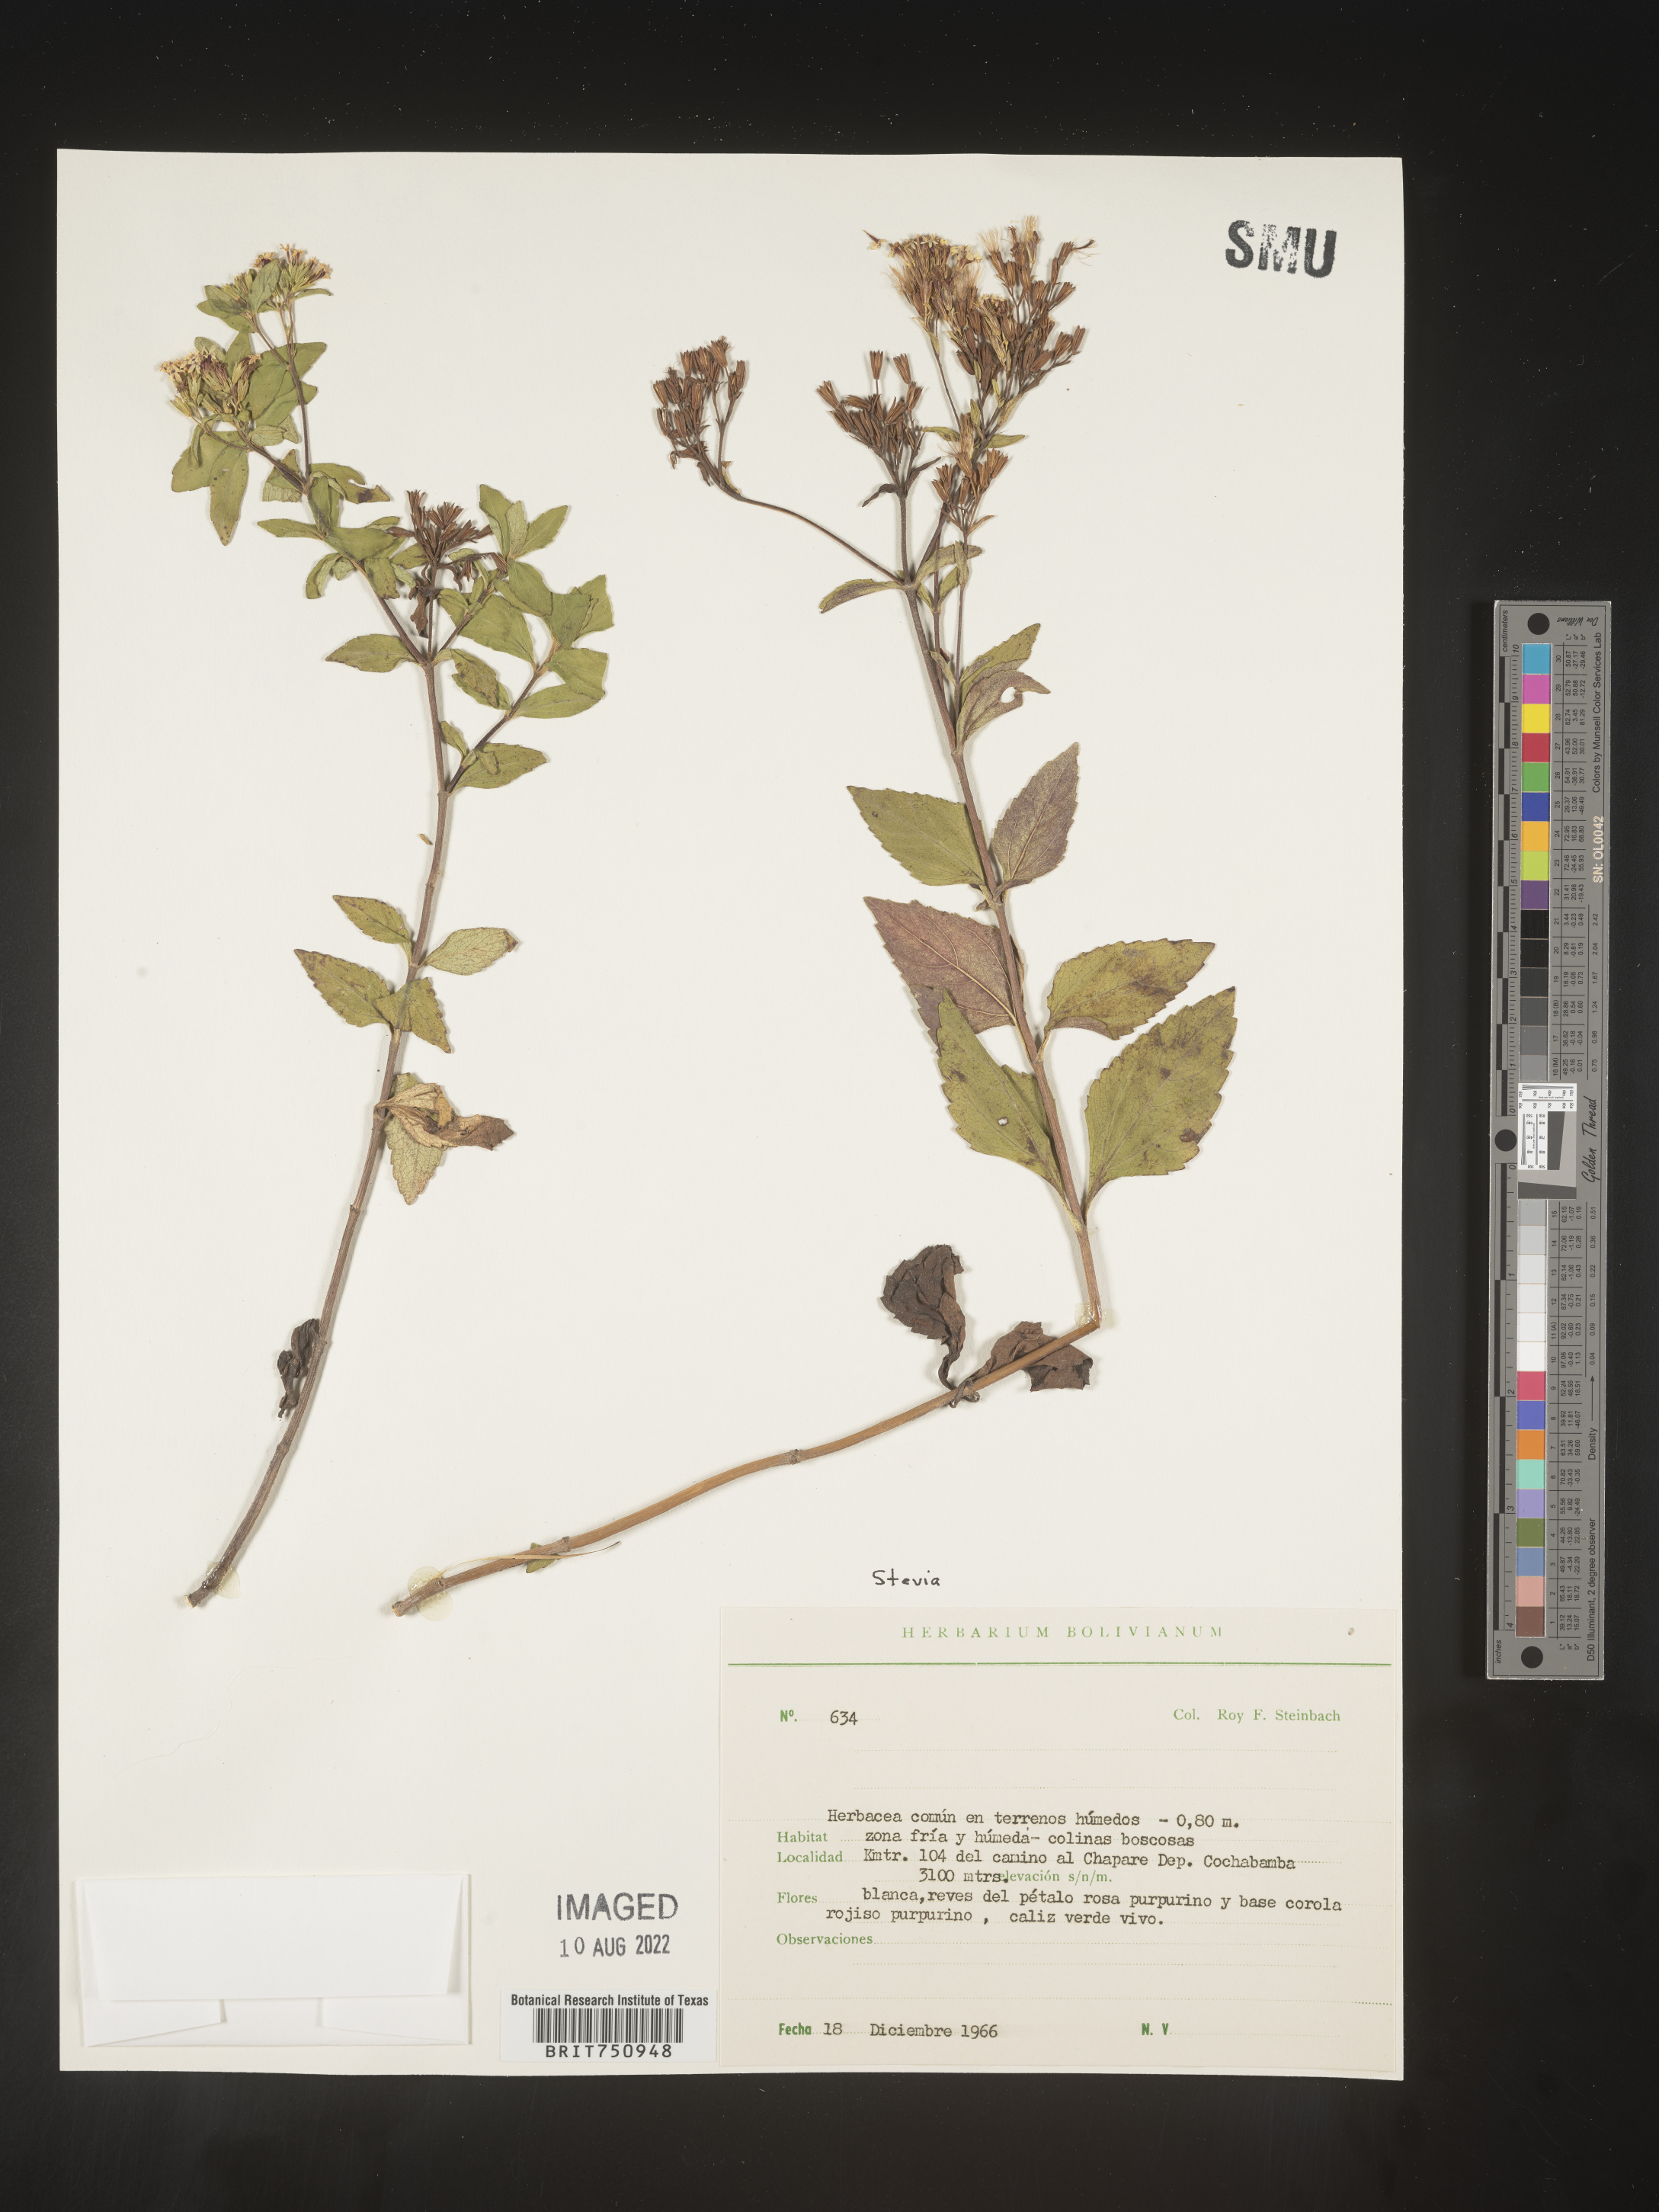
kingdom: Plantae
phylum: Tracheophyta
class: Magnoliopsida
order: Asterales
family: Asteraceae
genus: Stevia
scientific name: Stevia
